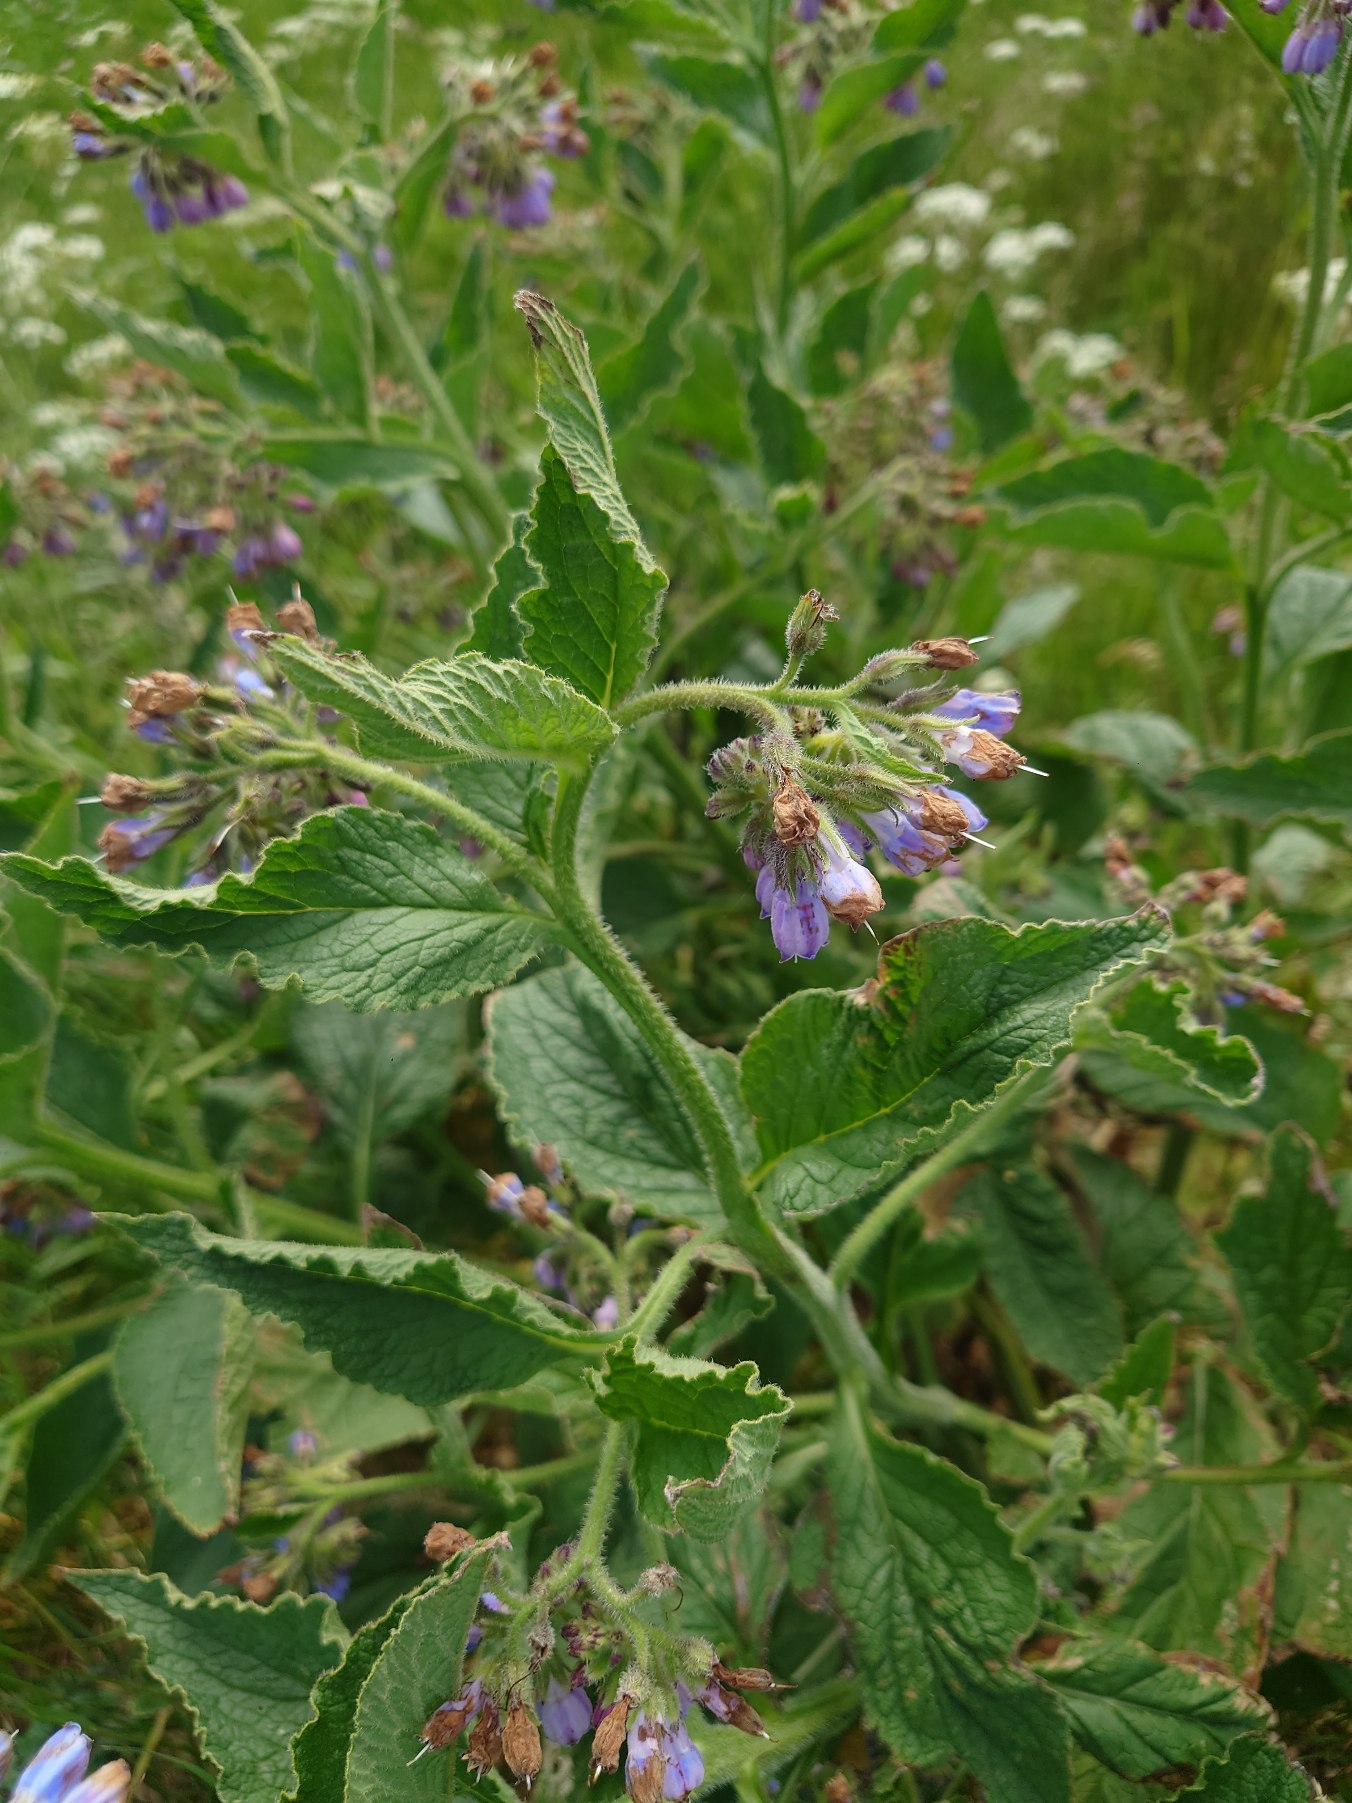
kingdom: Plantae
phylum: Tracheophyta
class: Magnoliopsida
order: Boraginales
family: Boraginaceae
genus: Symphytum
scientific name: Symphytum uplandicum
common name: Foder-kulsukker
